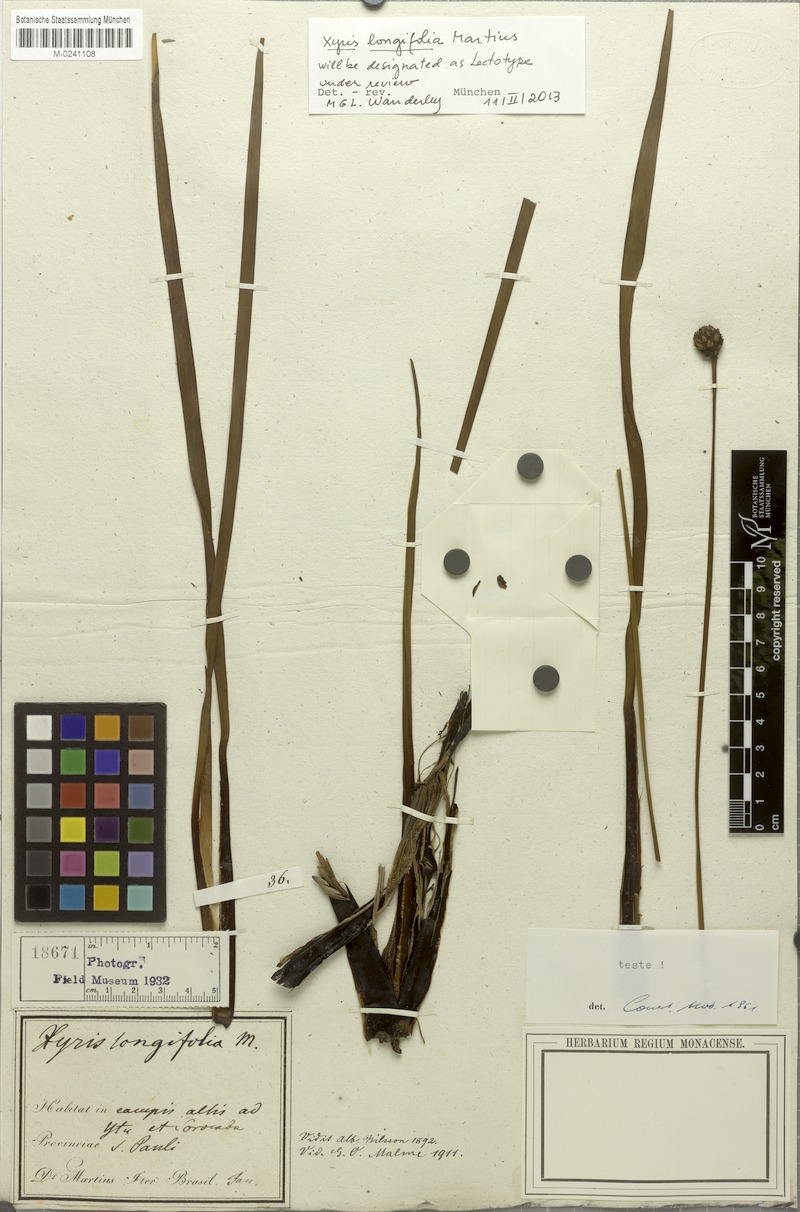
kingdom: Plantae
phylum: Tracheophyta
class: Liliopsida
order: Poales
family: Xyridaceae
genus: Xyris
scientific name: Xyris longifolia
